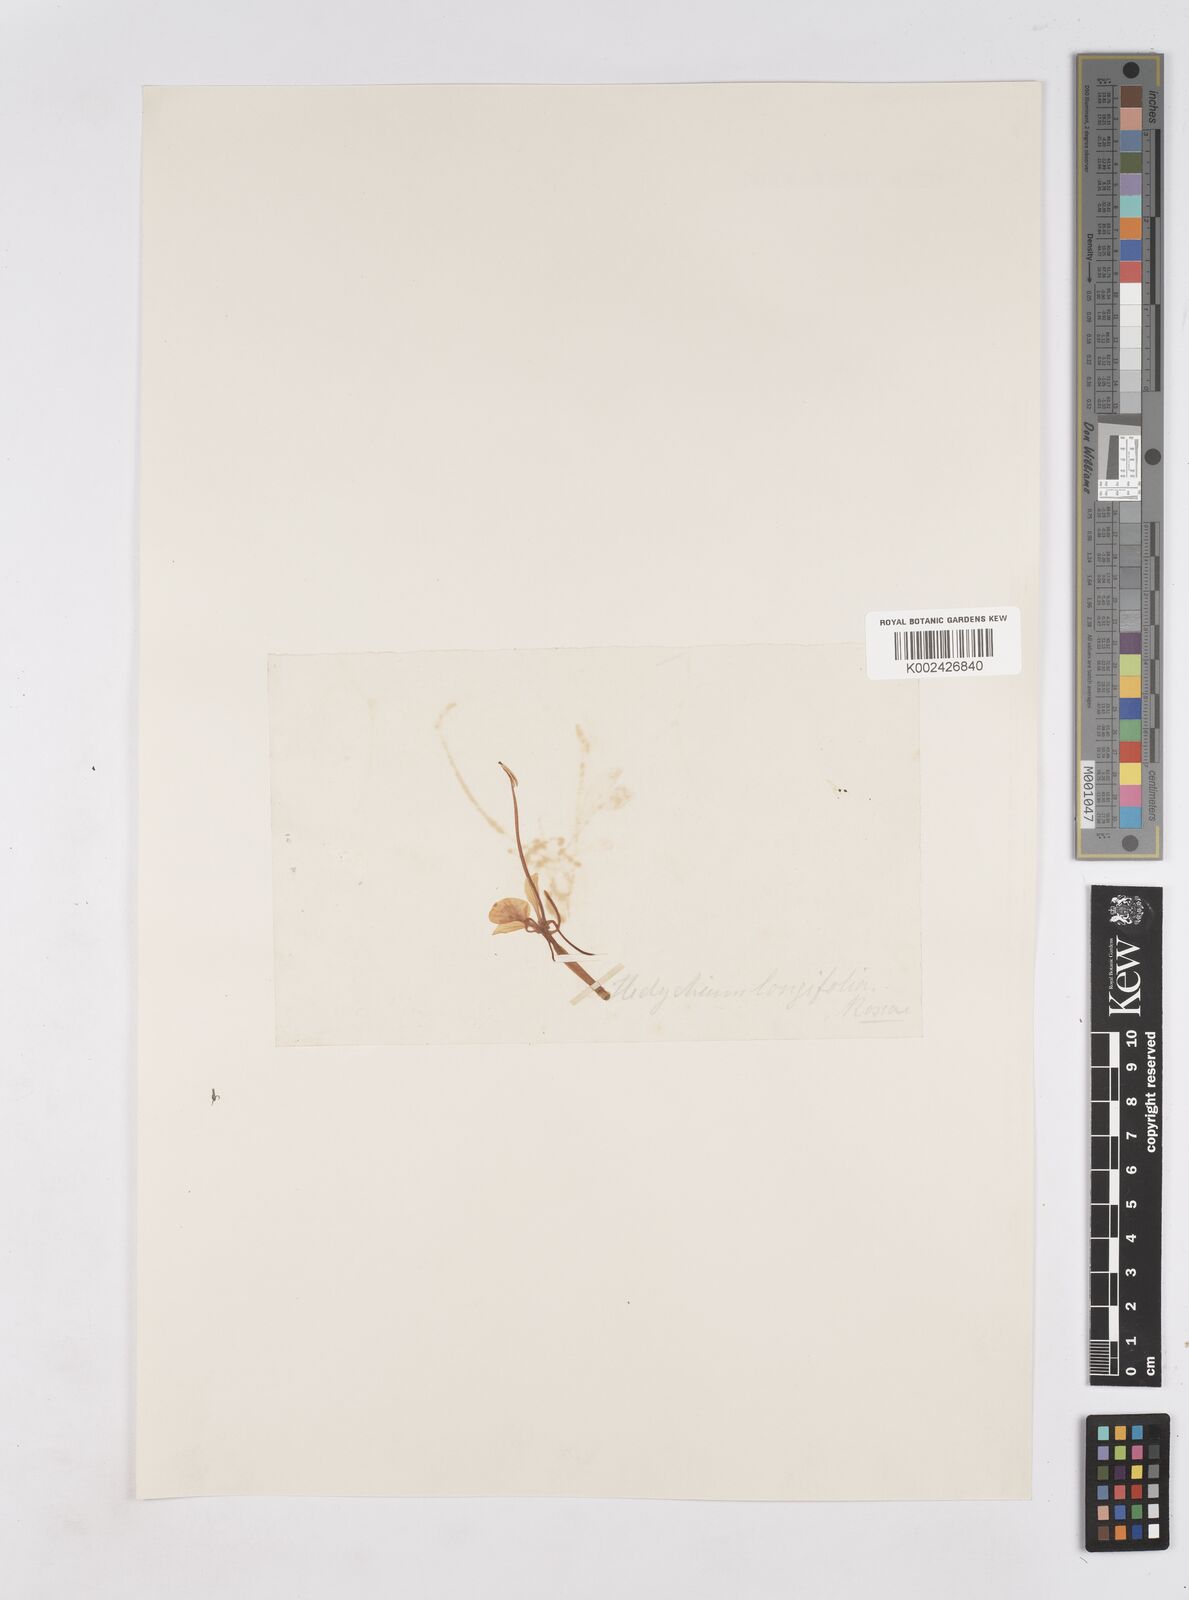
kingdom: Plantae
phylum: Tracheophyta
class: Liliopsida
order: Zingiberales
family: Zingiberaceae
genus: Hedychium
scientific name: Hedychium coccineum
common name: Red ginger-lily
